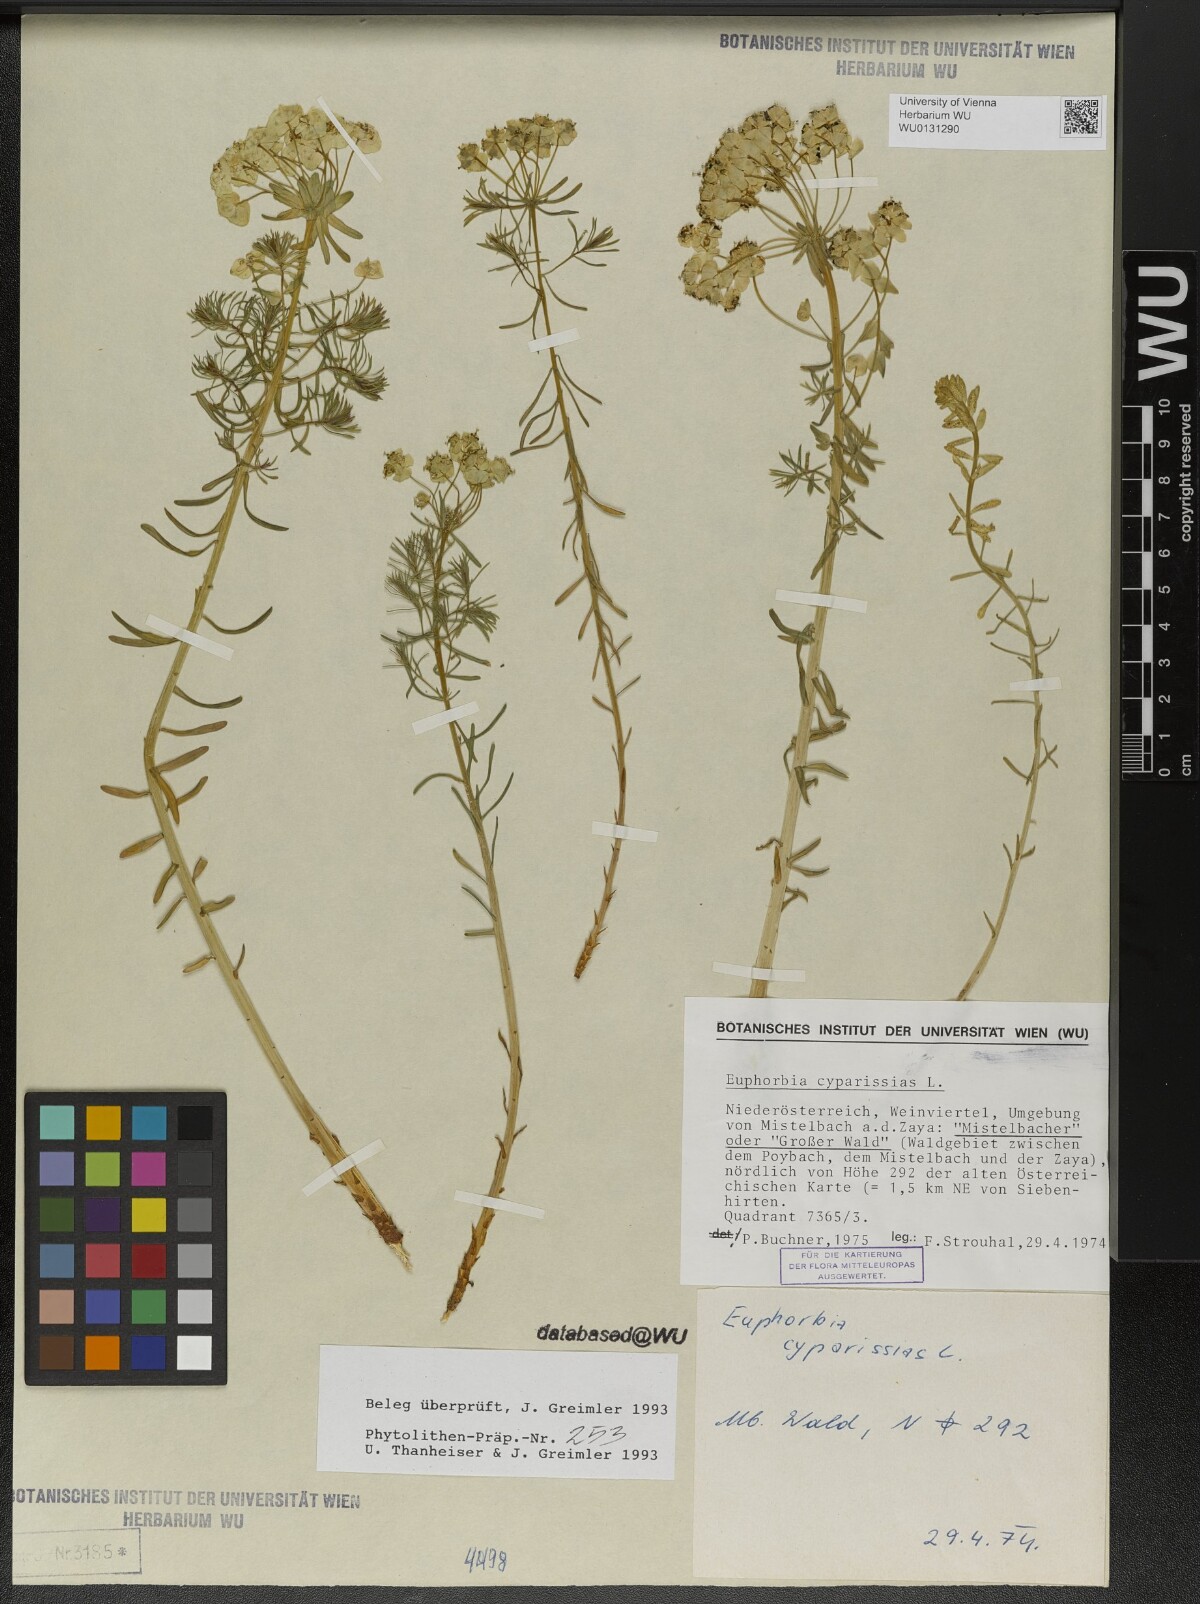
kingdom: Plantae
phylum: Tracheophyta
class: Magnoliopsida
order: Malpighiales
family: Euphorbiaceae
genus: Euphorbia
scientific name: Euphorbia cyparissias
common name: Cypress spurge
